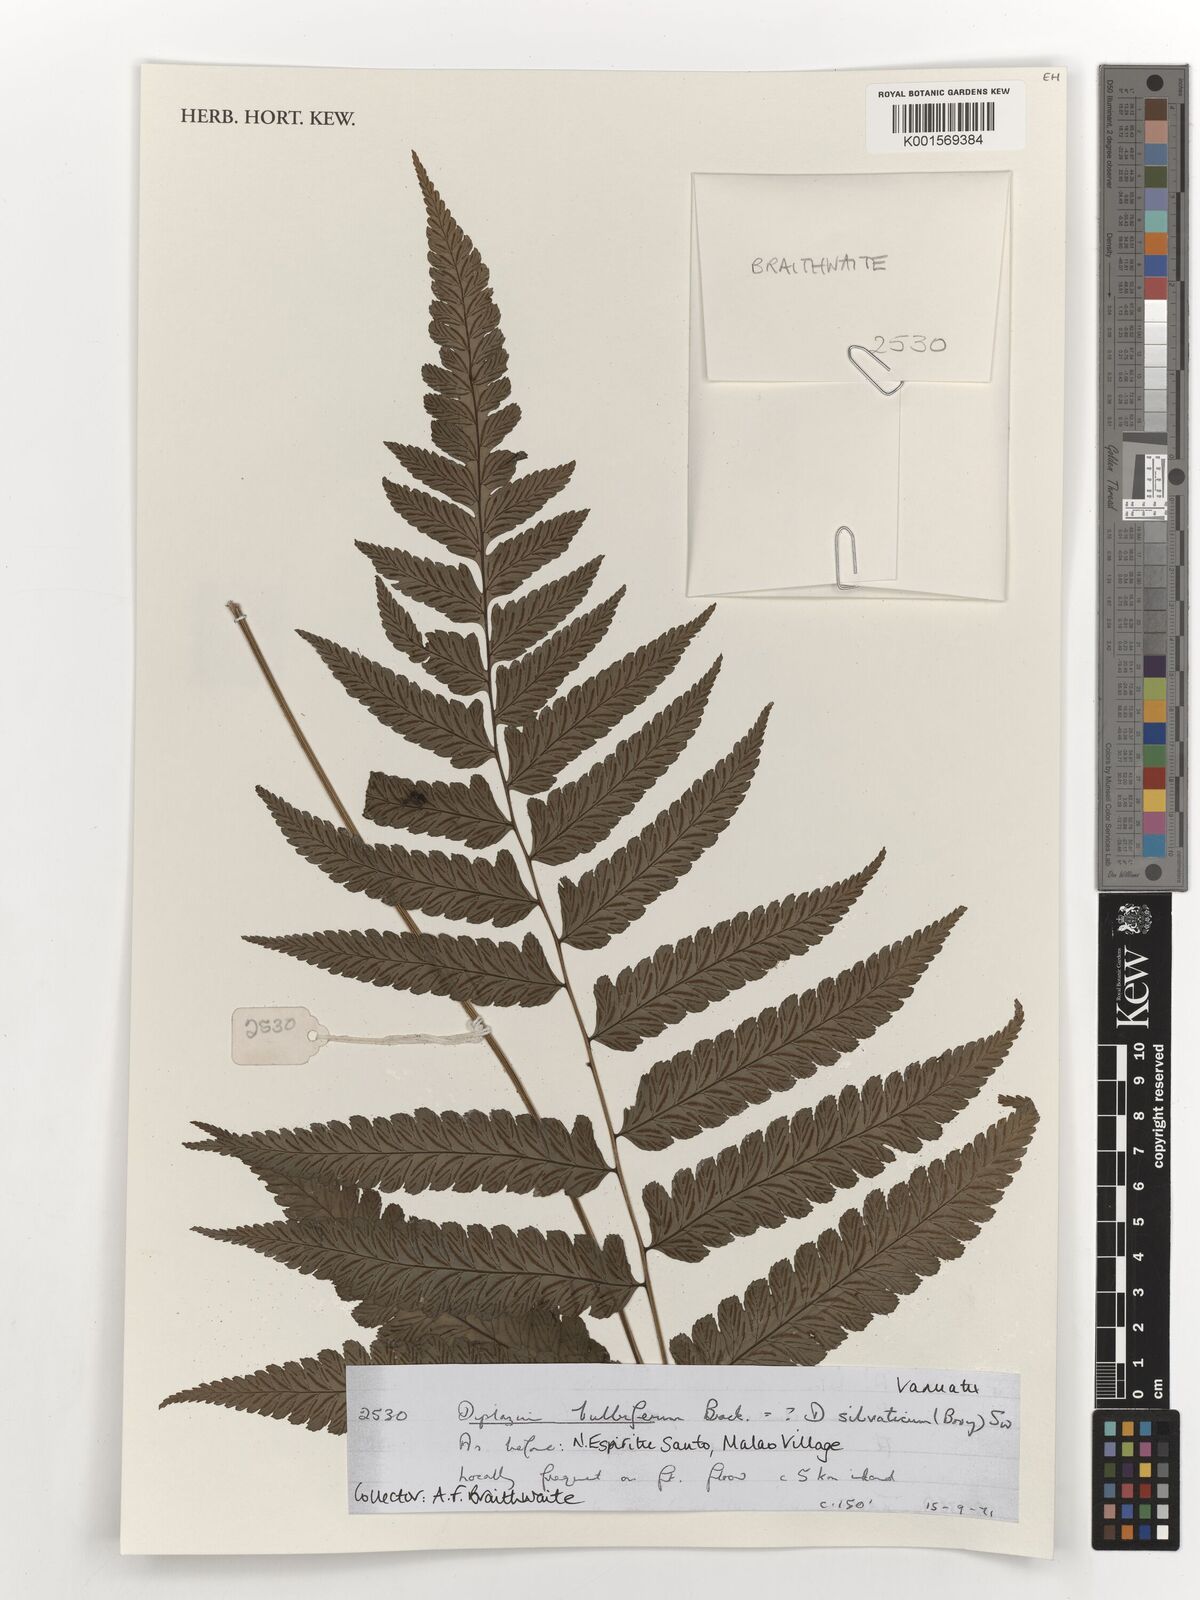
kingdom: Plantae
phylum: Tracheophyta
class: Polypodiopsida
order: Polypodiales
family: Athyriaceae
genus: Diplazium
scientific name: Diplazium bulbiferum
